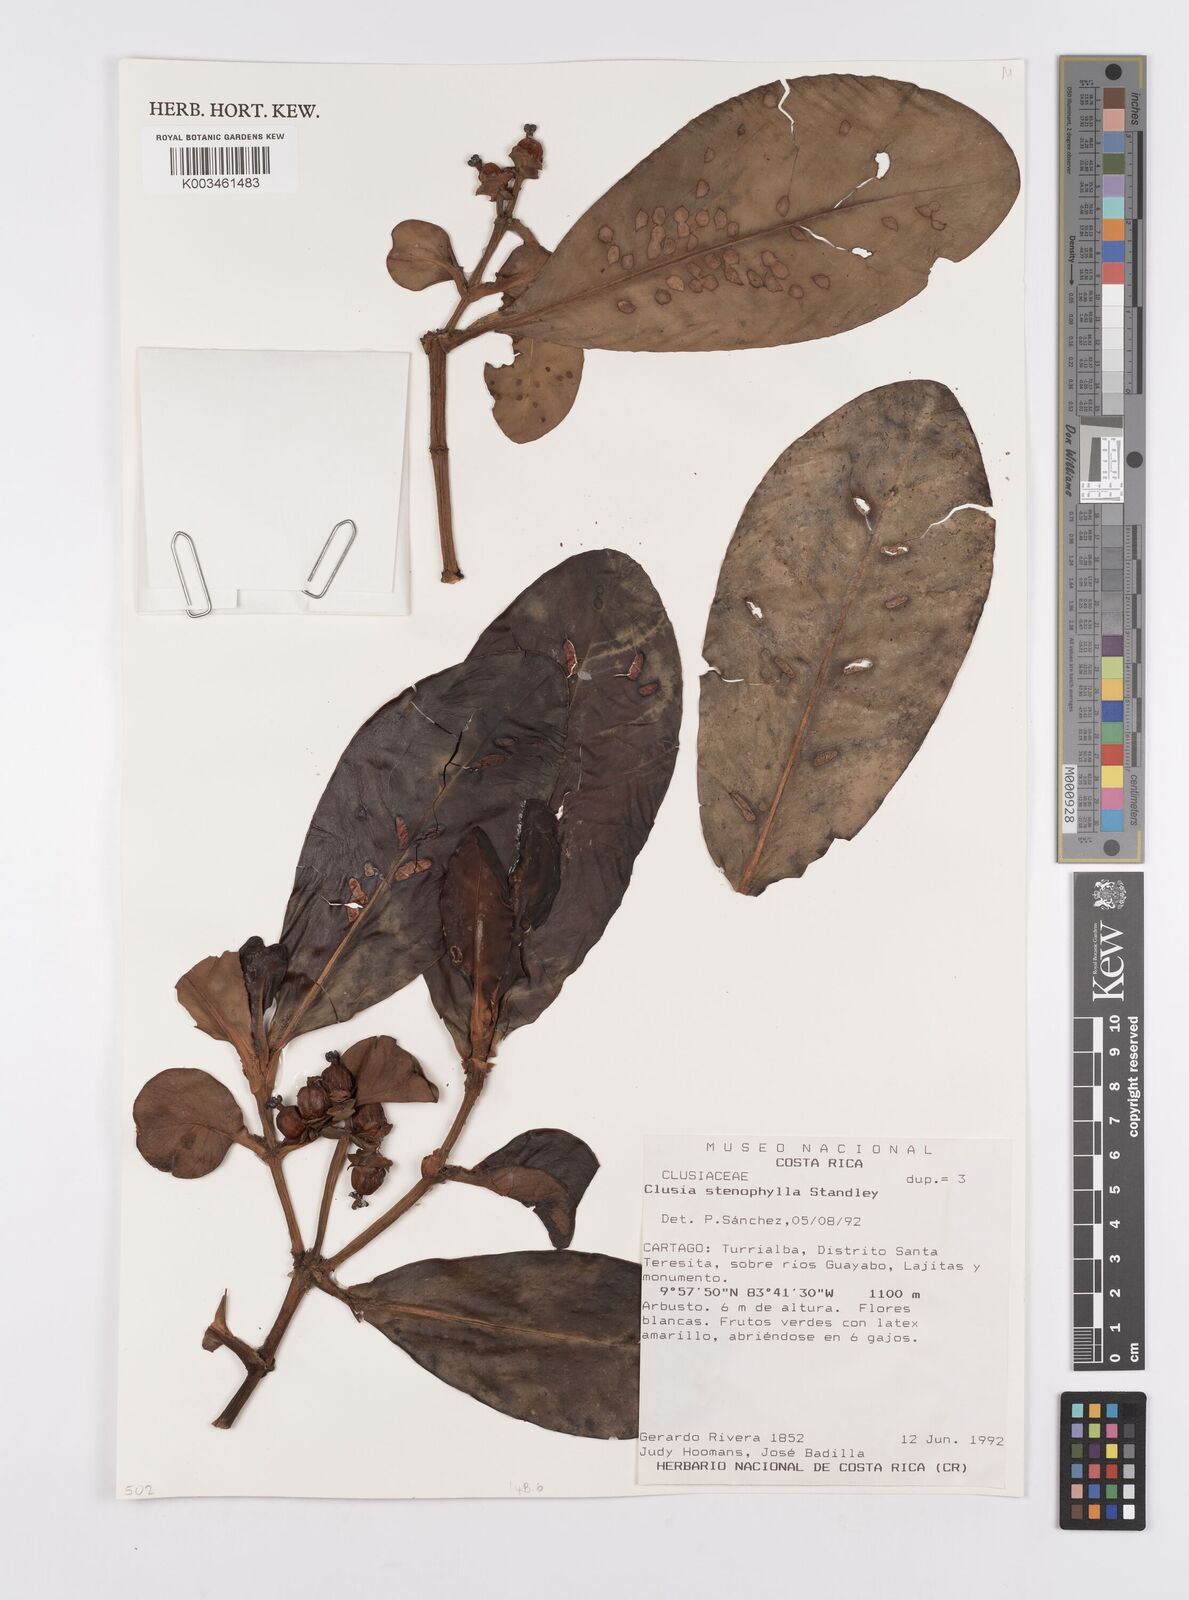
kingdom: Plantae
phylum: Tracheophyta
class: Magnoliopsida
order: Malpighiales
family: Clusiaceae
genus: Clusia
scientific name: Clusia stenophylla
